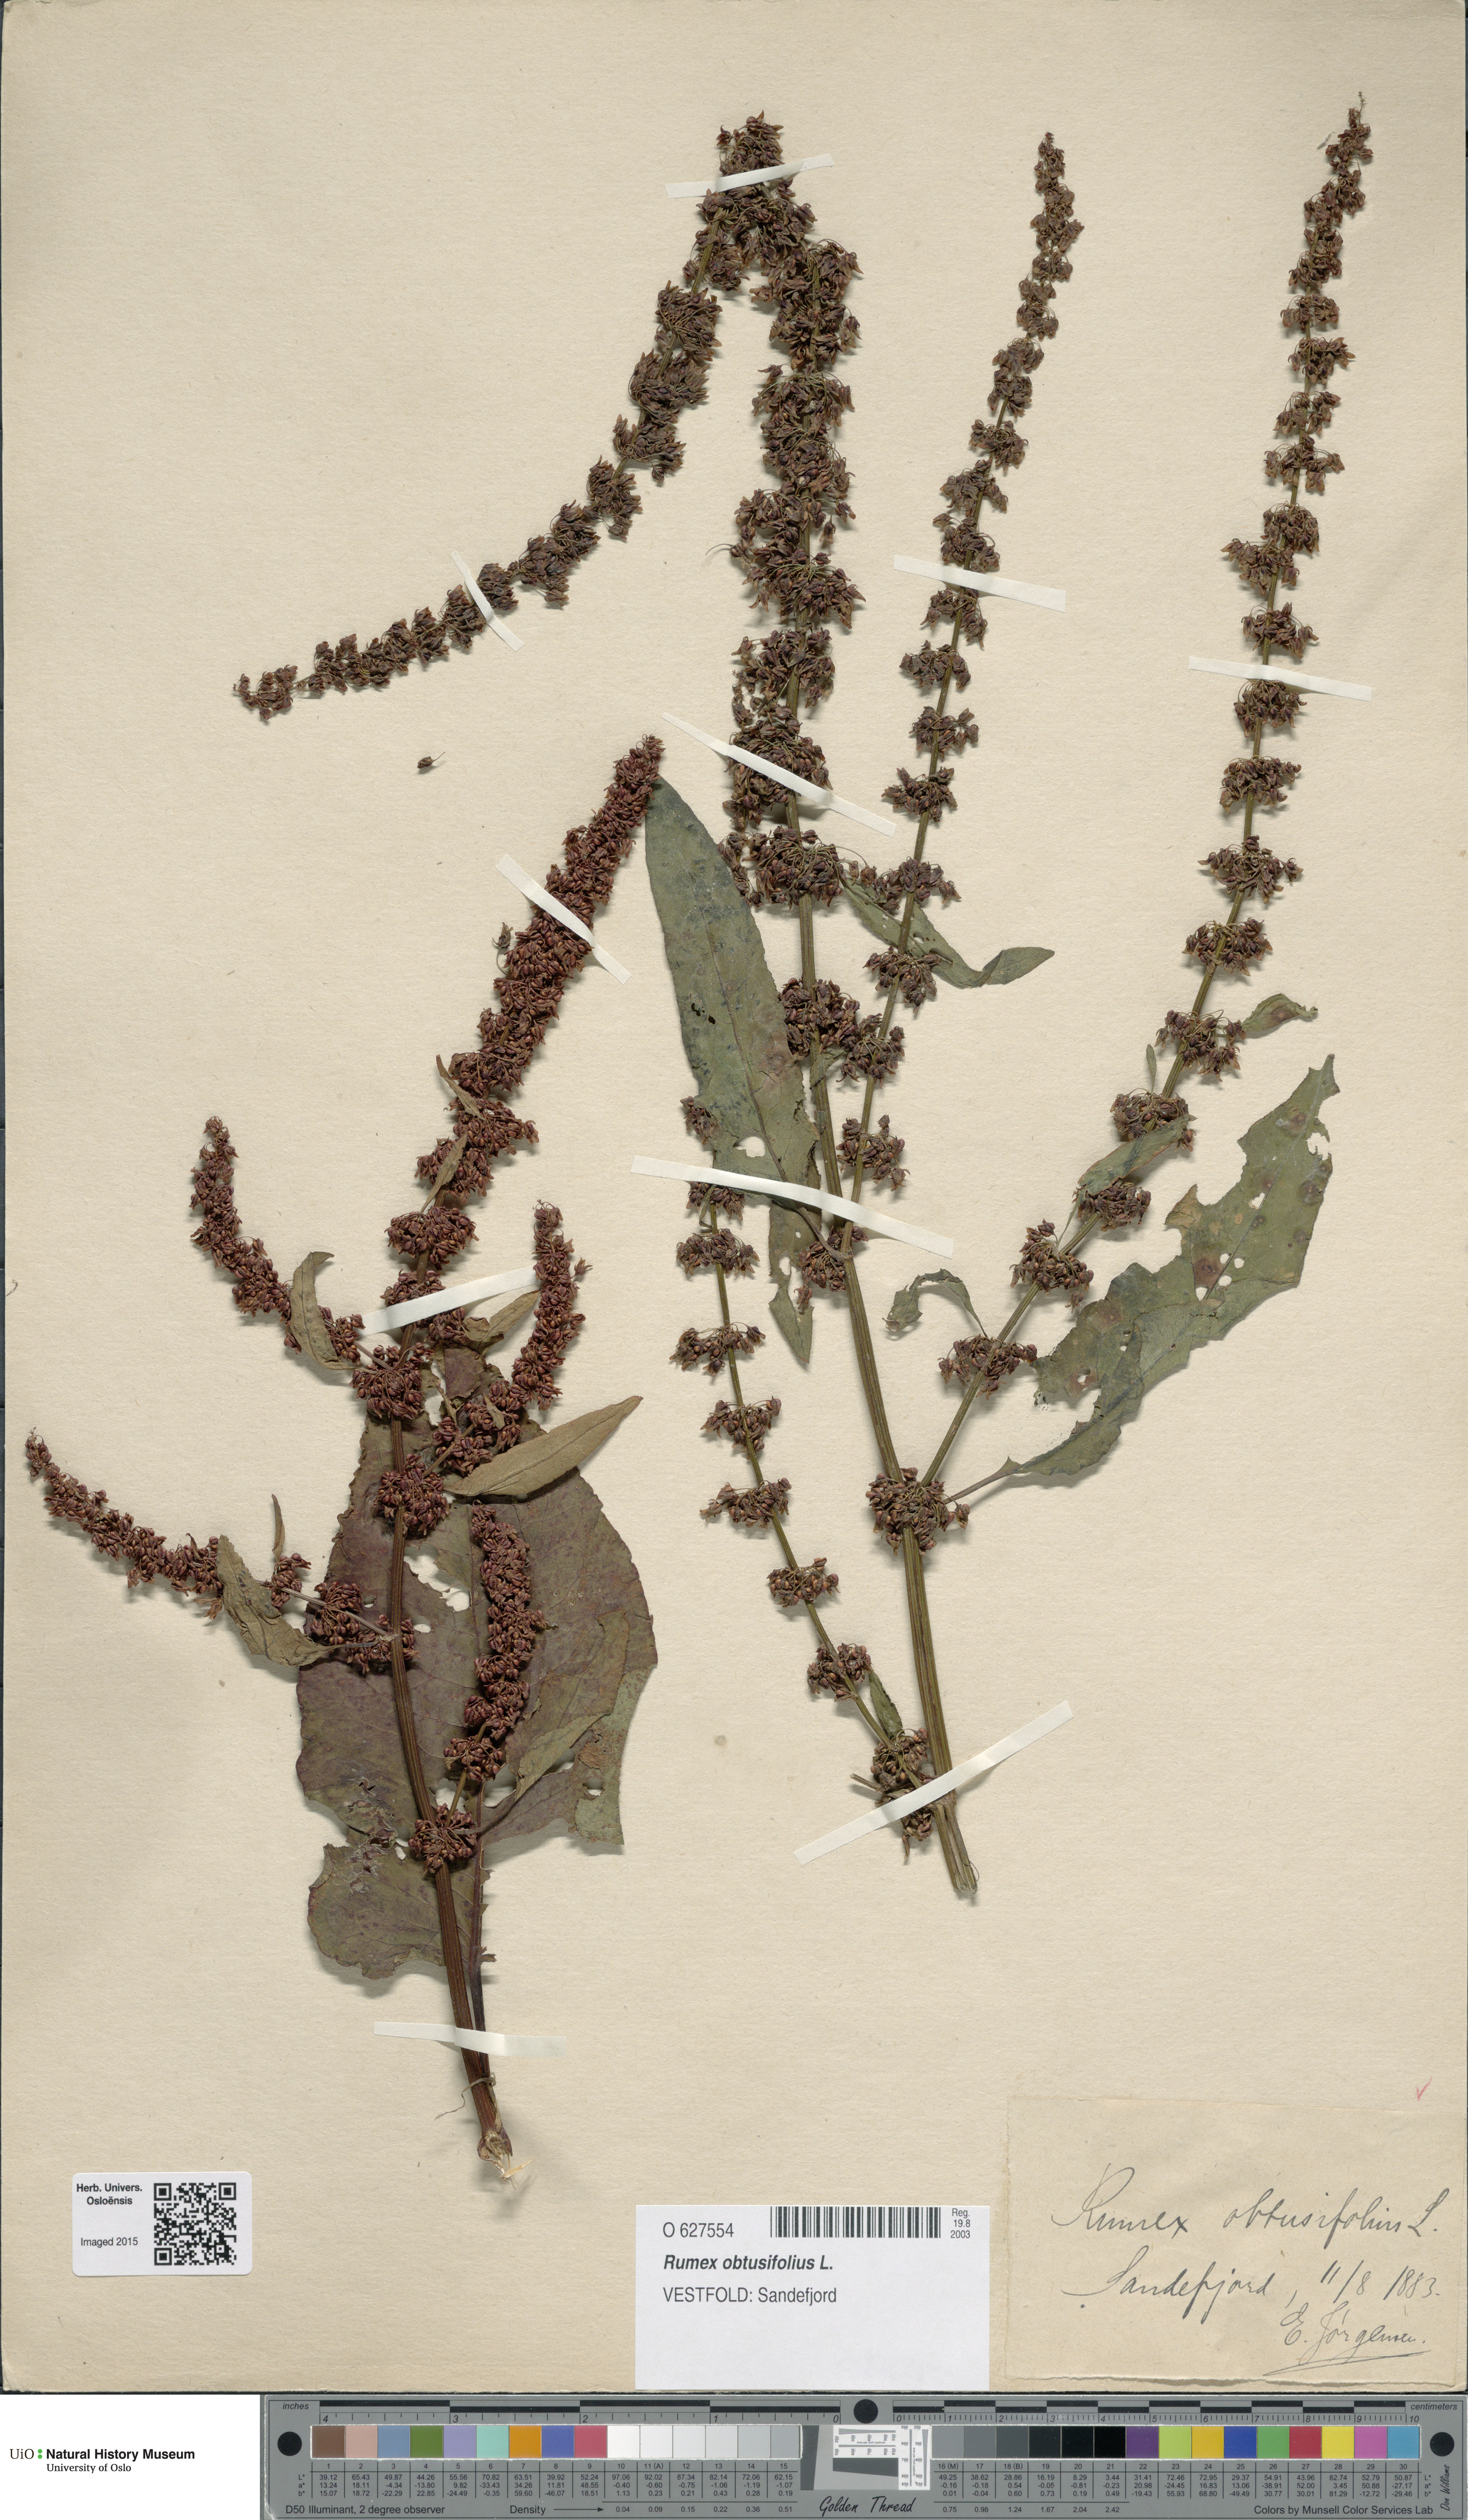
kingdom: Plantae
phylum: Tracheophyta
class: Magnoliopsida
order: Caryophyllales
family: Polygonaceae
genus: Rumex
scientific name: Rumex obtusifolius
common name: Bitter dock
